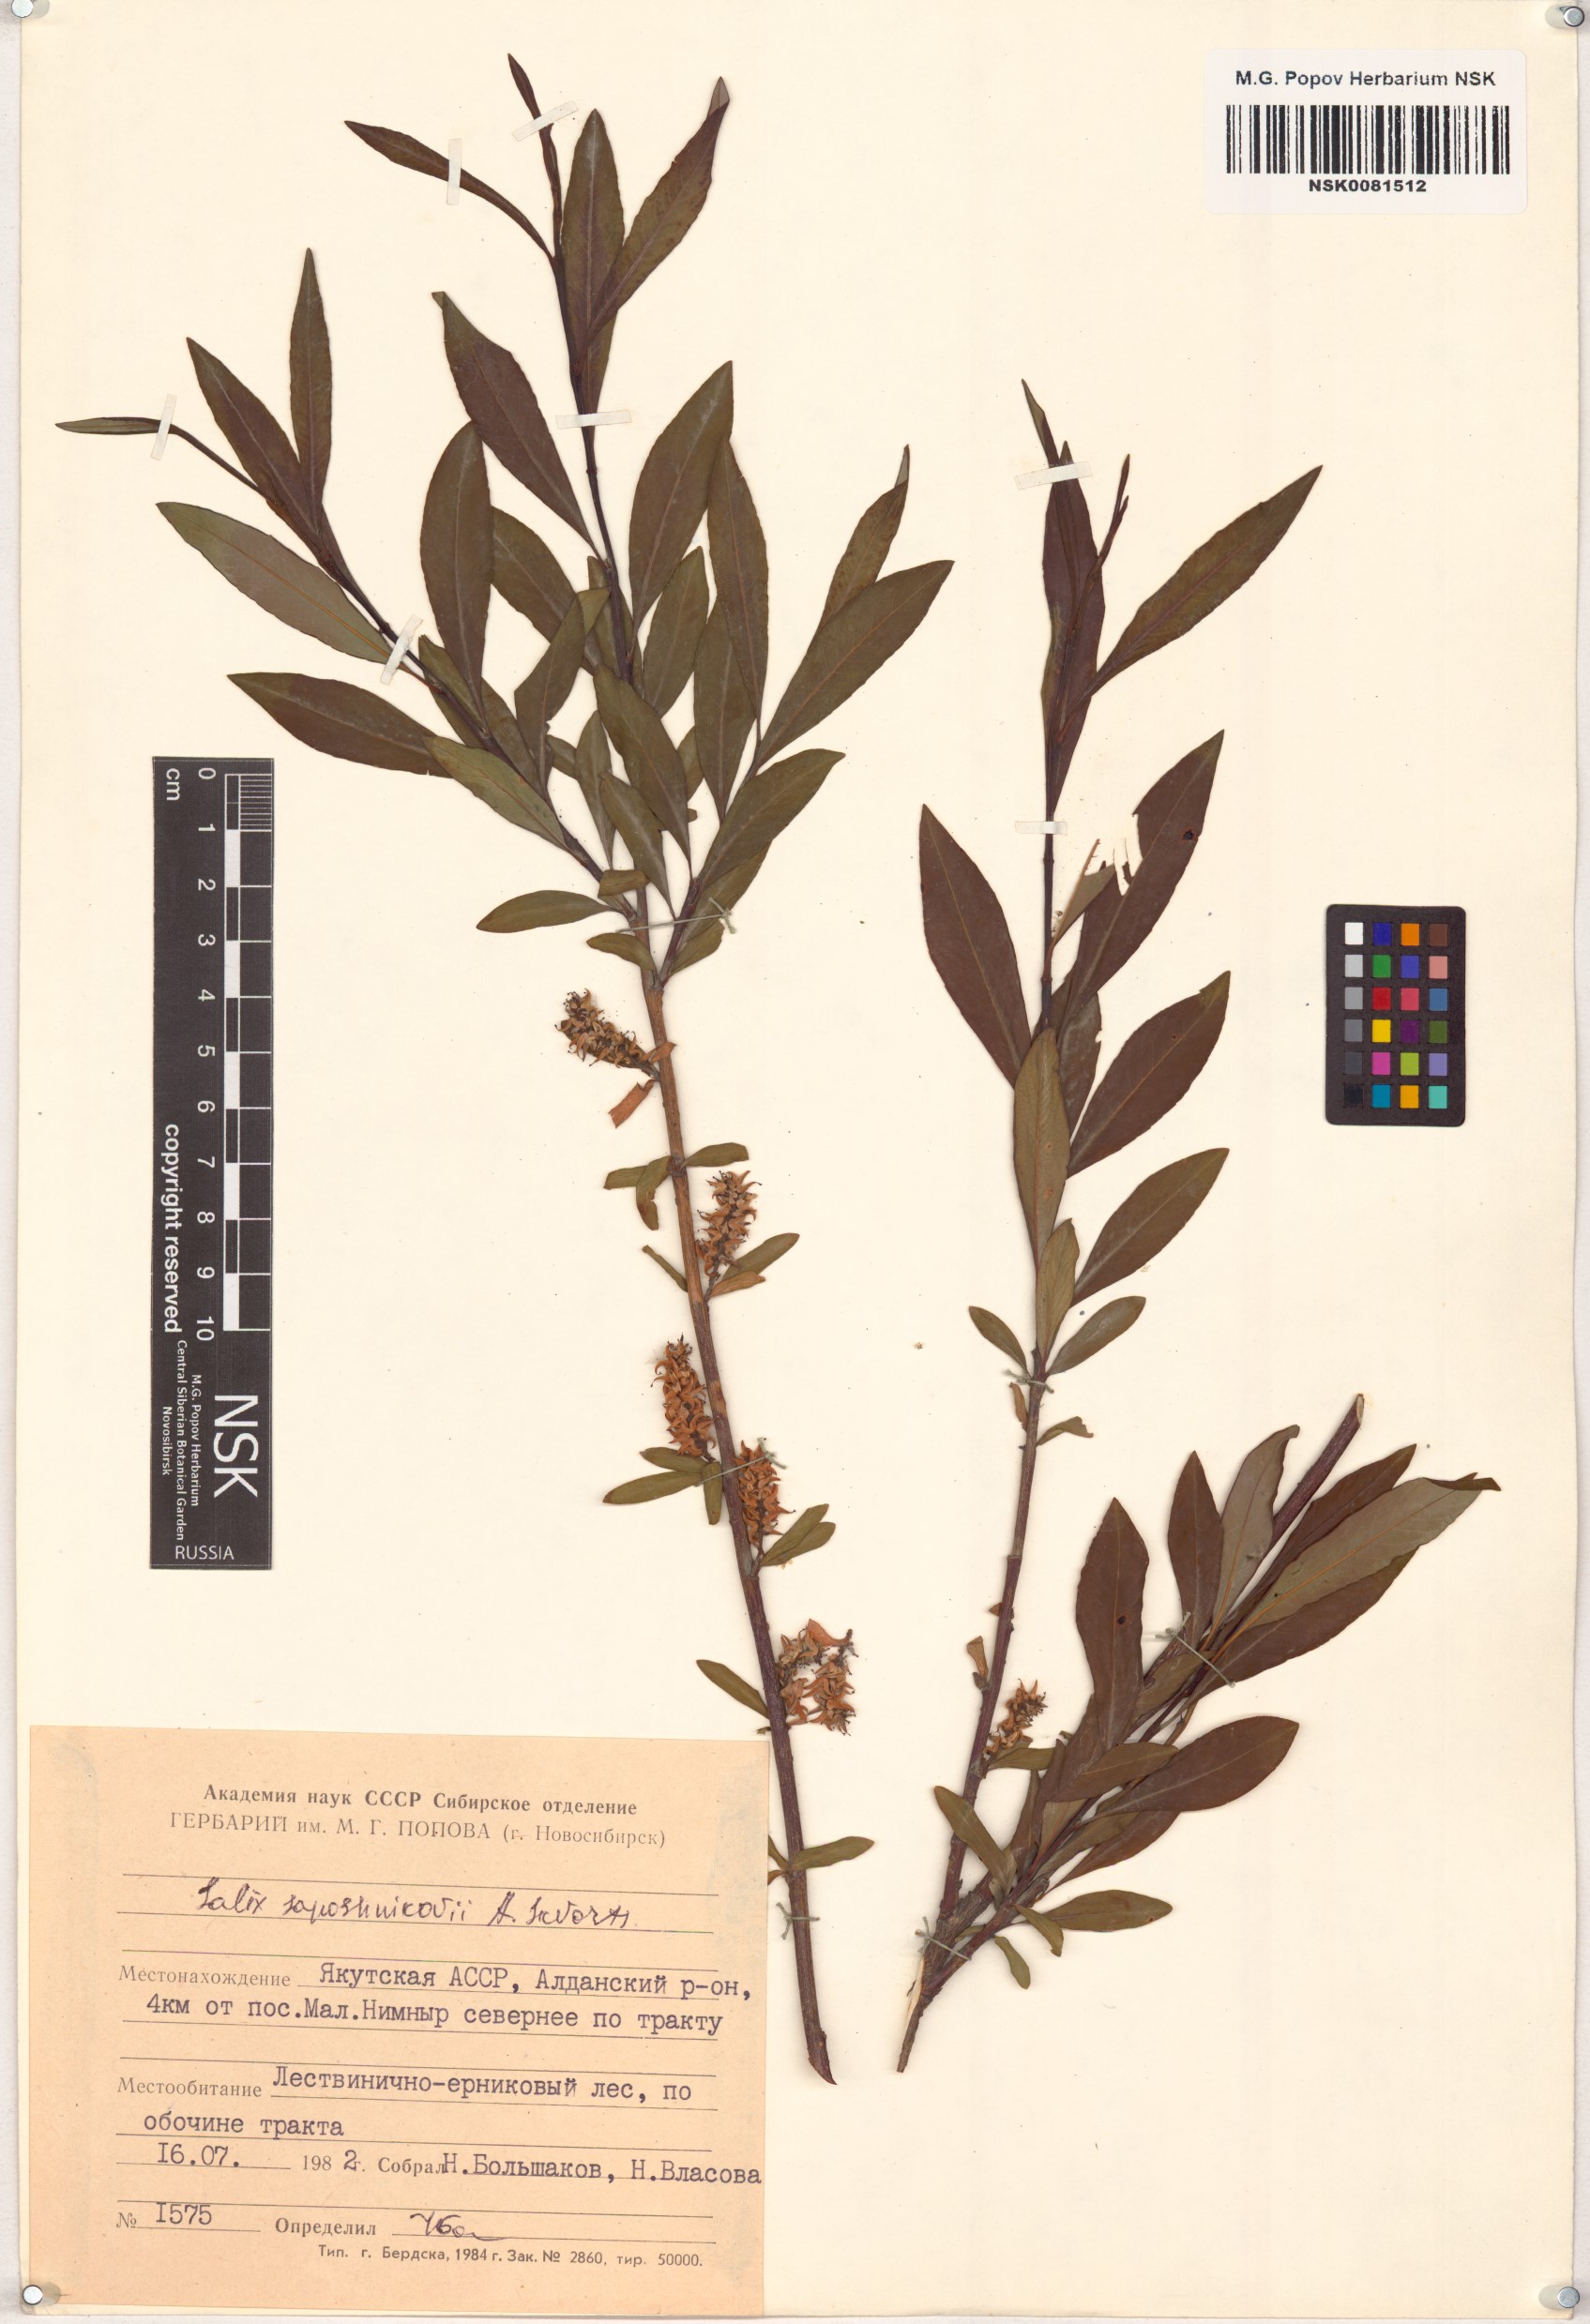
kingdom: Plantae
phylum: Tracheophyta
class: Magnoliopsida
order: Malpighiales
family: Salicaceae
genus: Salix
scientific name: Salix saposhnikovii
